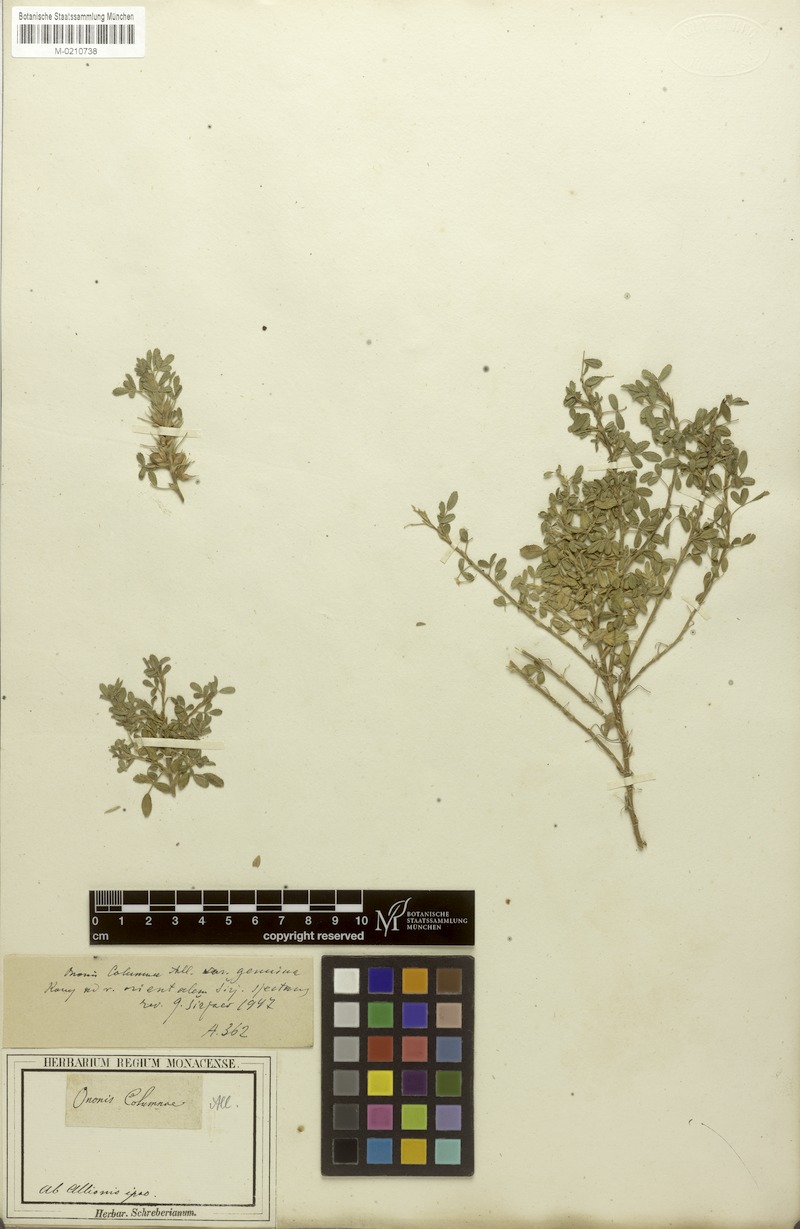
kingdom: Plantae
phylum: Tracheophyta
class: Magnoliopsida
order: Fabales
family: Fabaceae
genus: Ononis
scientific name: Ononis pusilla
